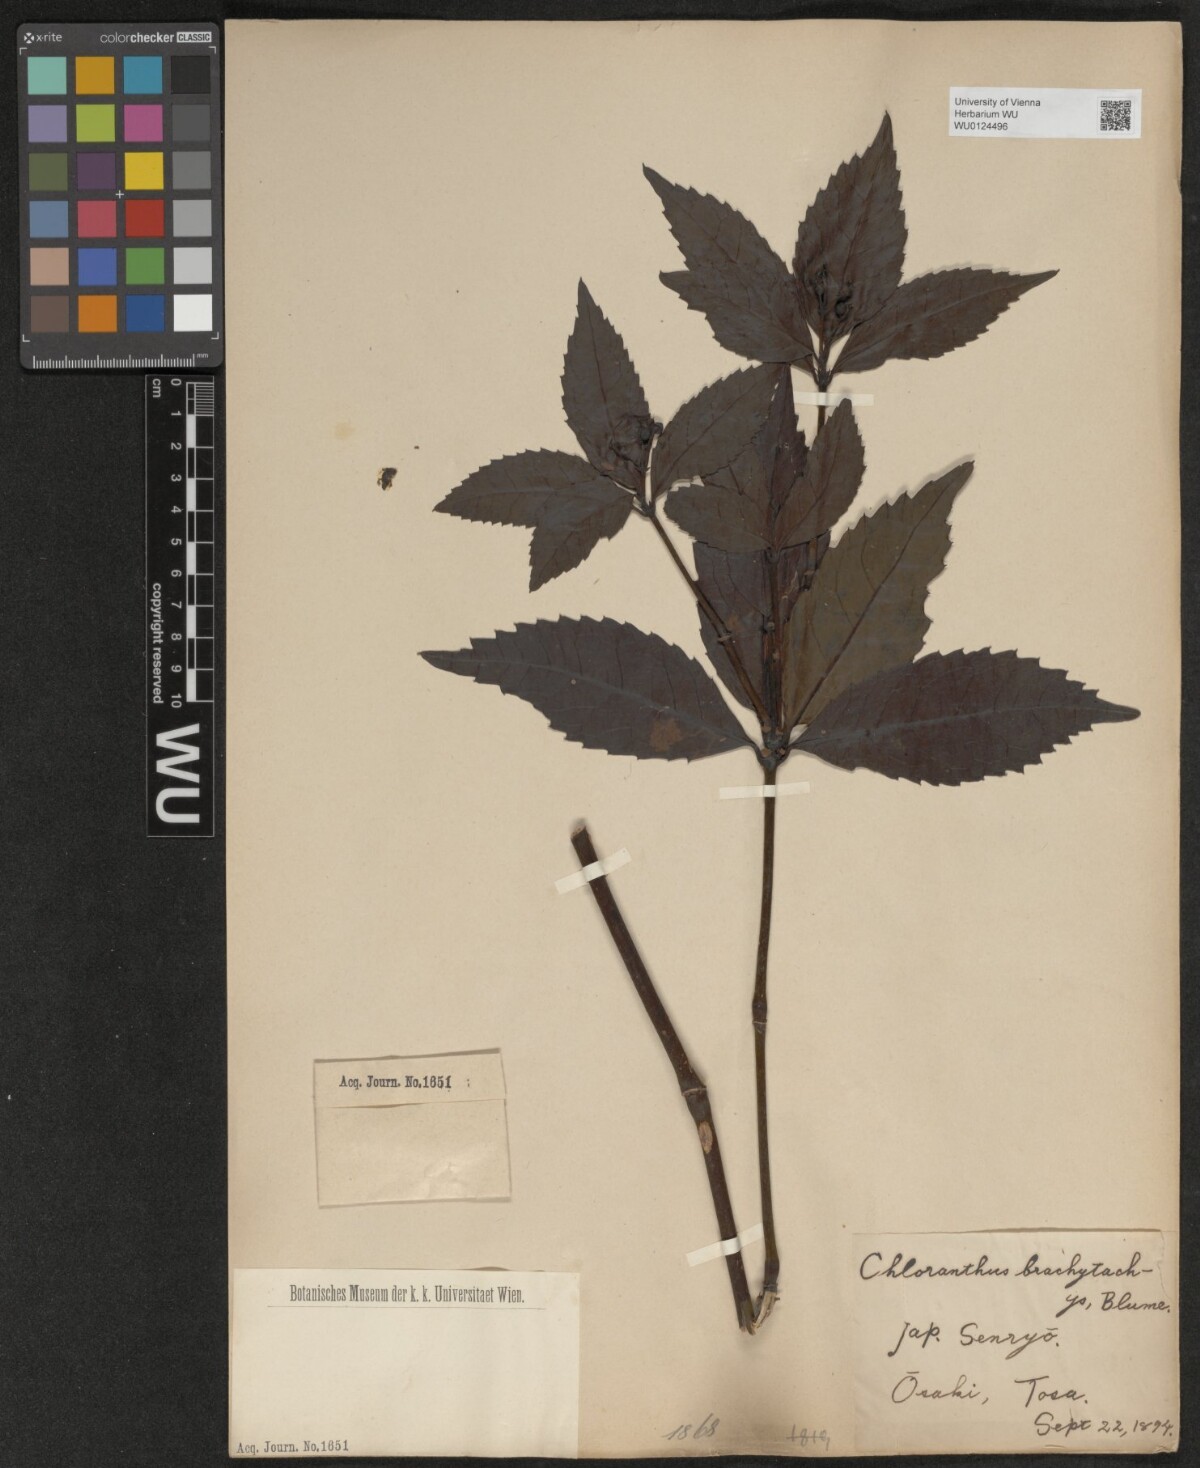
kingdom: Plantae
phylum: Tracheophyta
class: Magnoliopsida
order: Chloranthales
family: Chloranthaceae
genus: Sarcandra
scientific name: Sarcandra glabra
